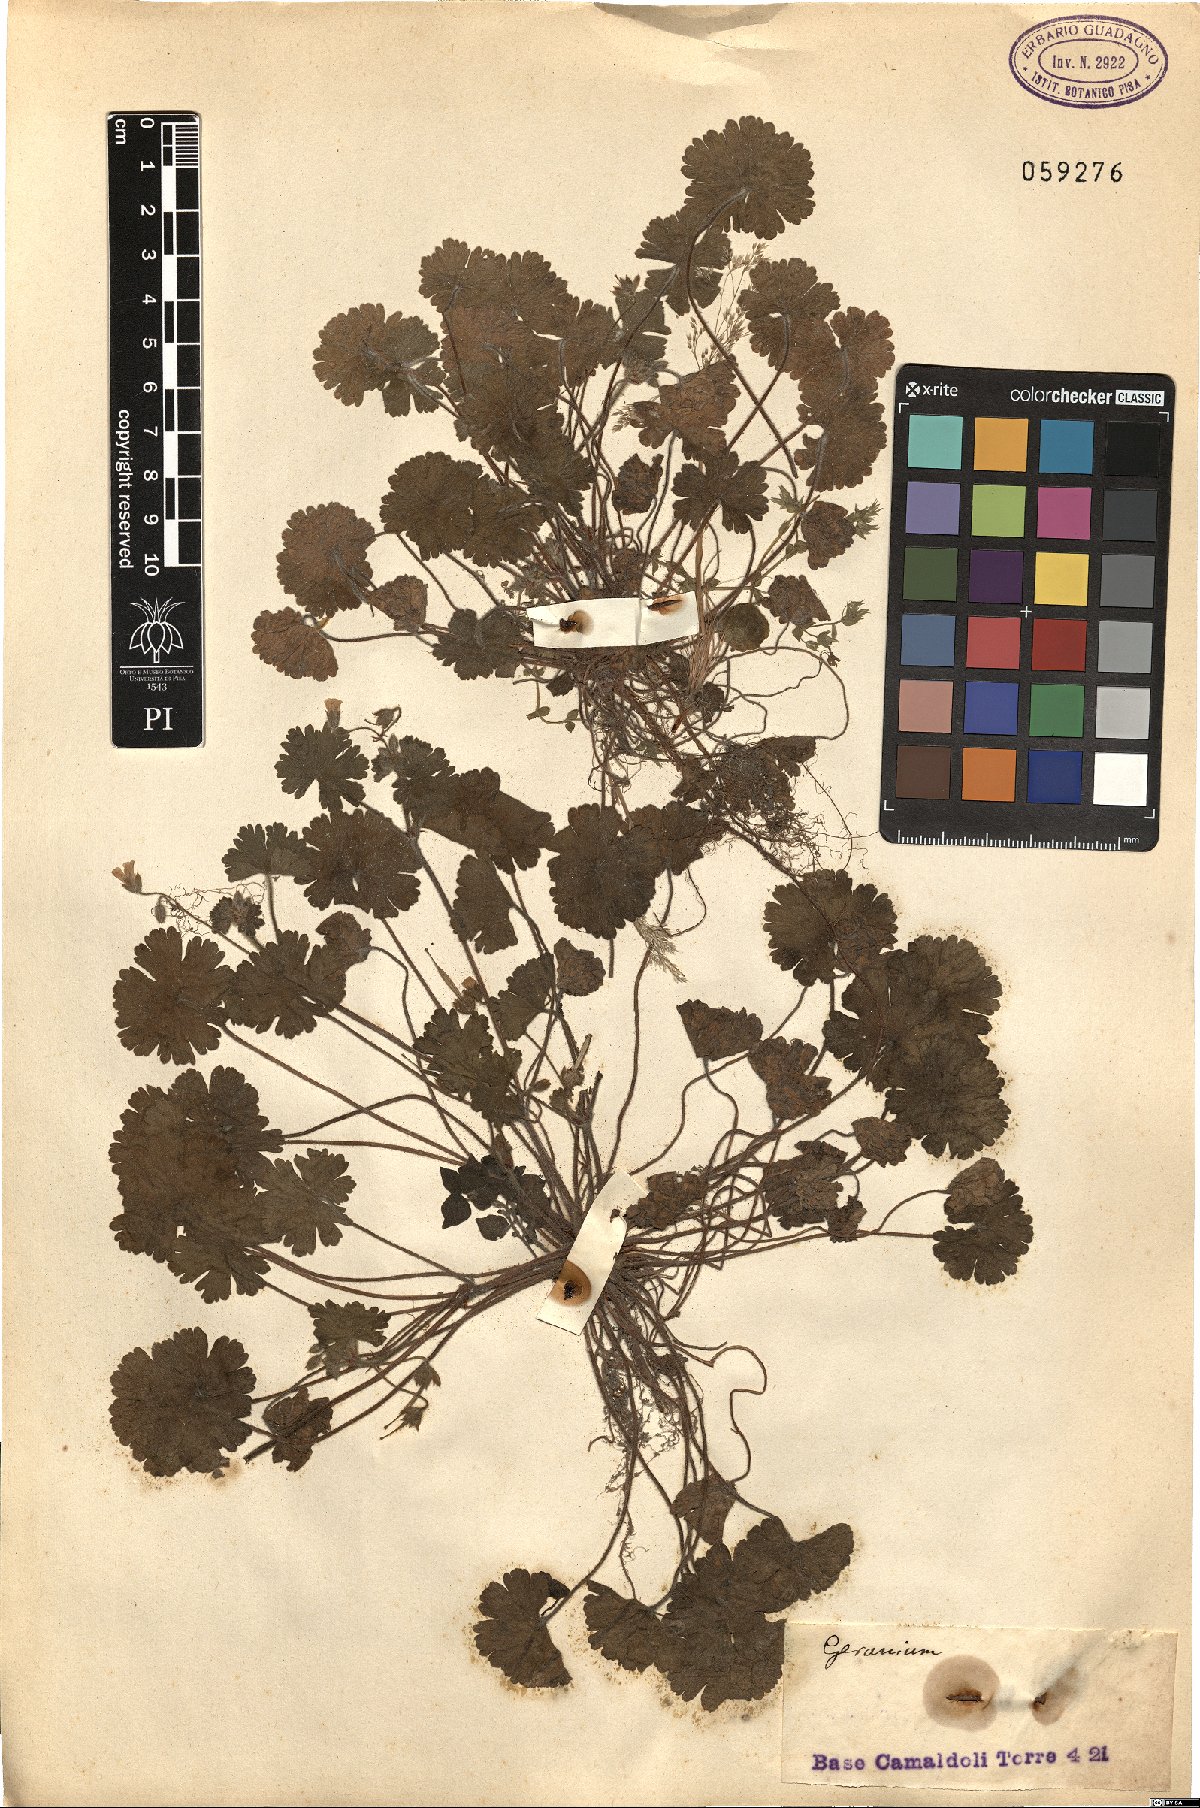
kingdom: Plantae
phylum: Tracheophyta
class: Magnoliopsida
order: Geraniales
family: Geraniaceae
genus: Geranium
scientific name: Geranium
